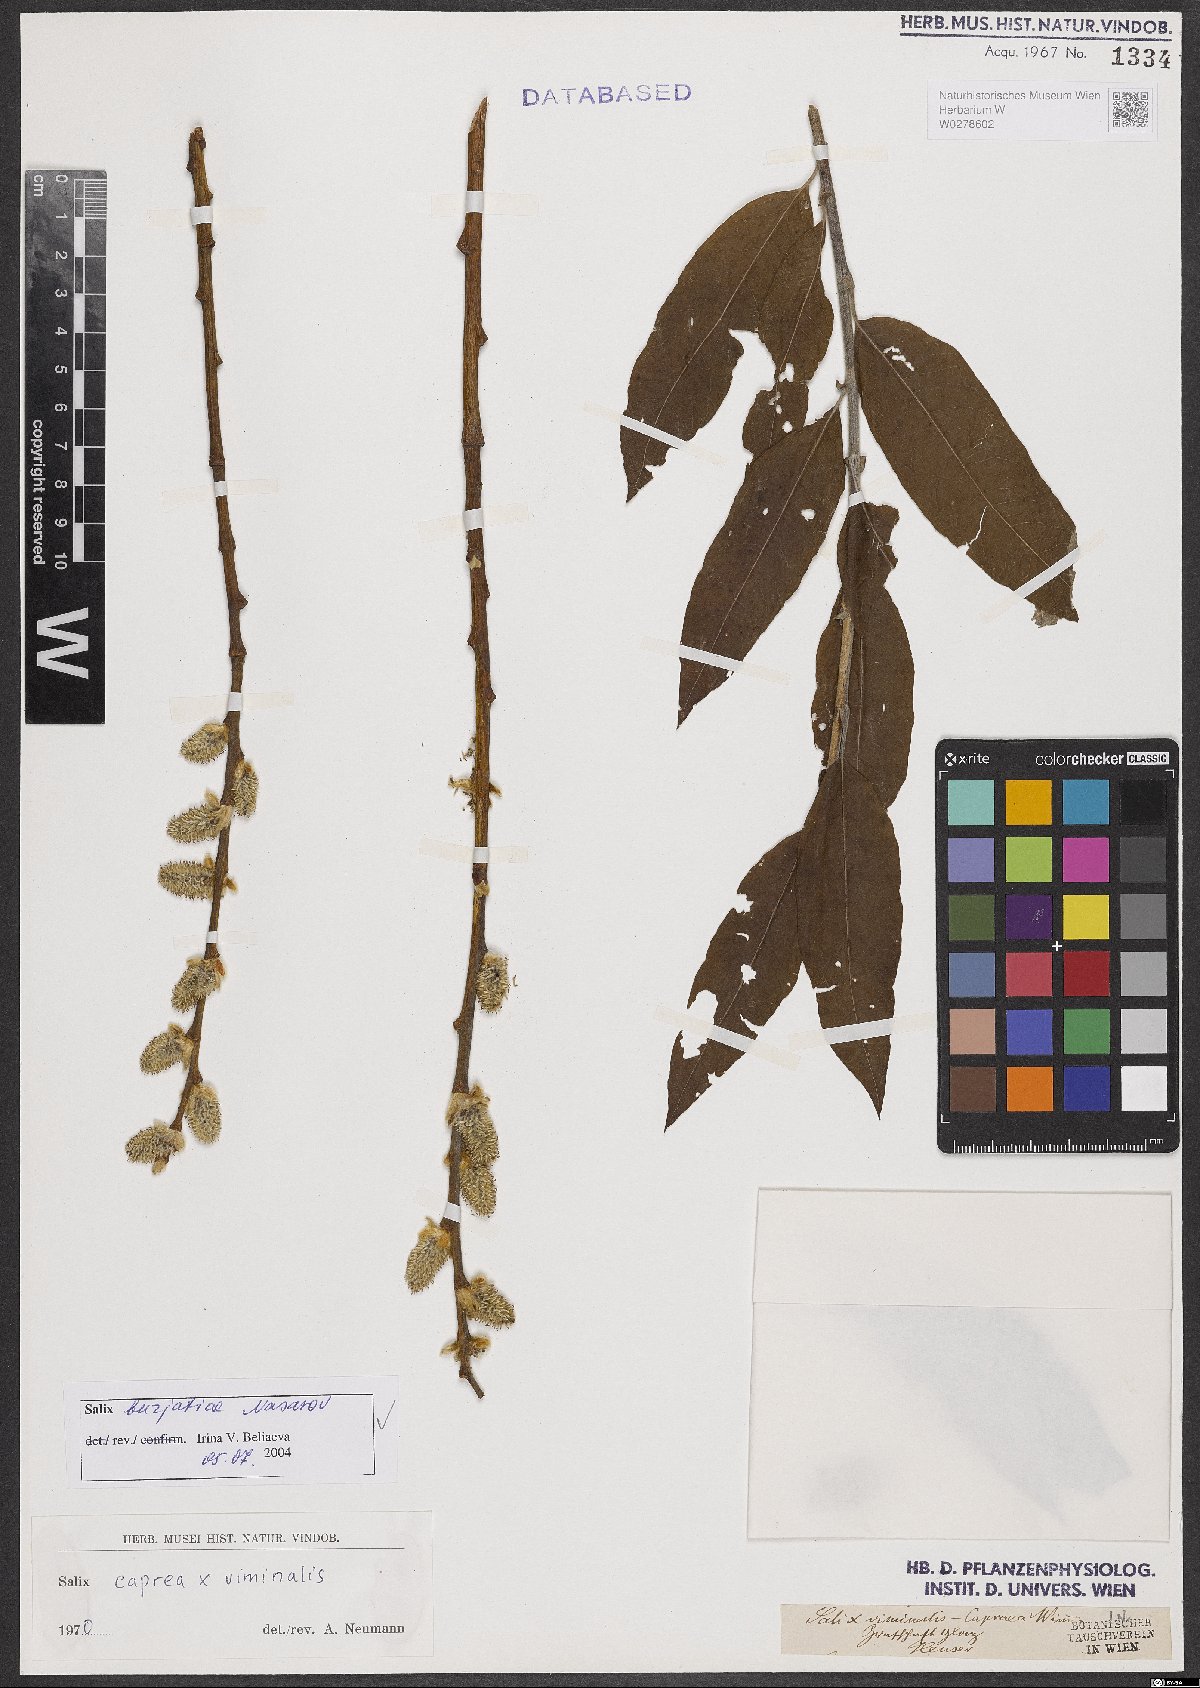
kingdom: Plantae
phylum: Tracheophyta
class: Magnoliopsida
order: Malpighiales
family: Salicaceae
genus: Salix
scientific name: Salix gmelinii
